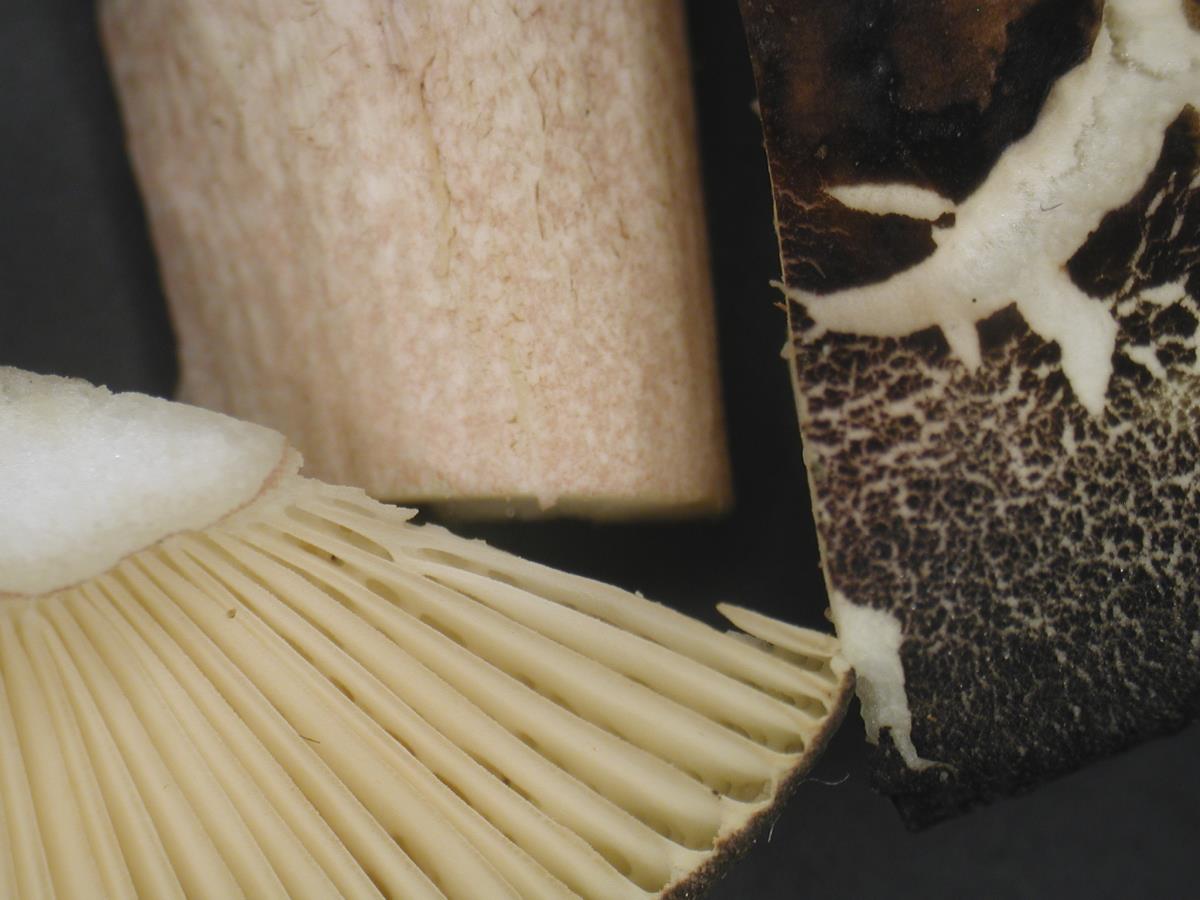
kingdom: Fungi
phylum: Basidiomycota
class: Agaricomycetes
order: Russulales
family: Russulaceae
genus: Russula
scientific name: Russula roseostipitata
